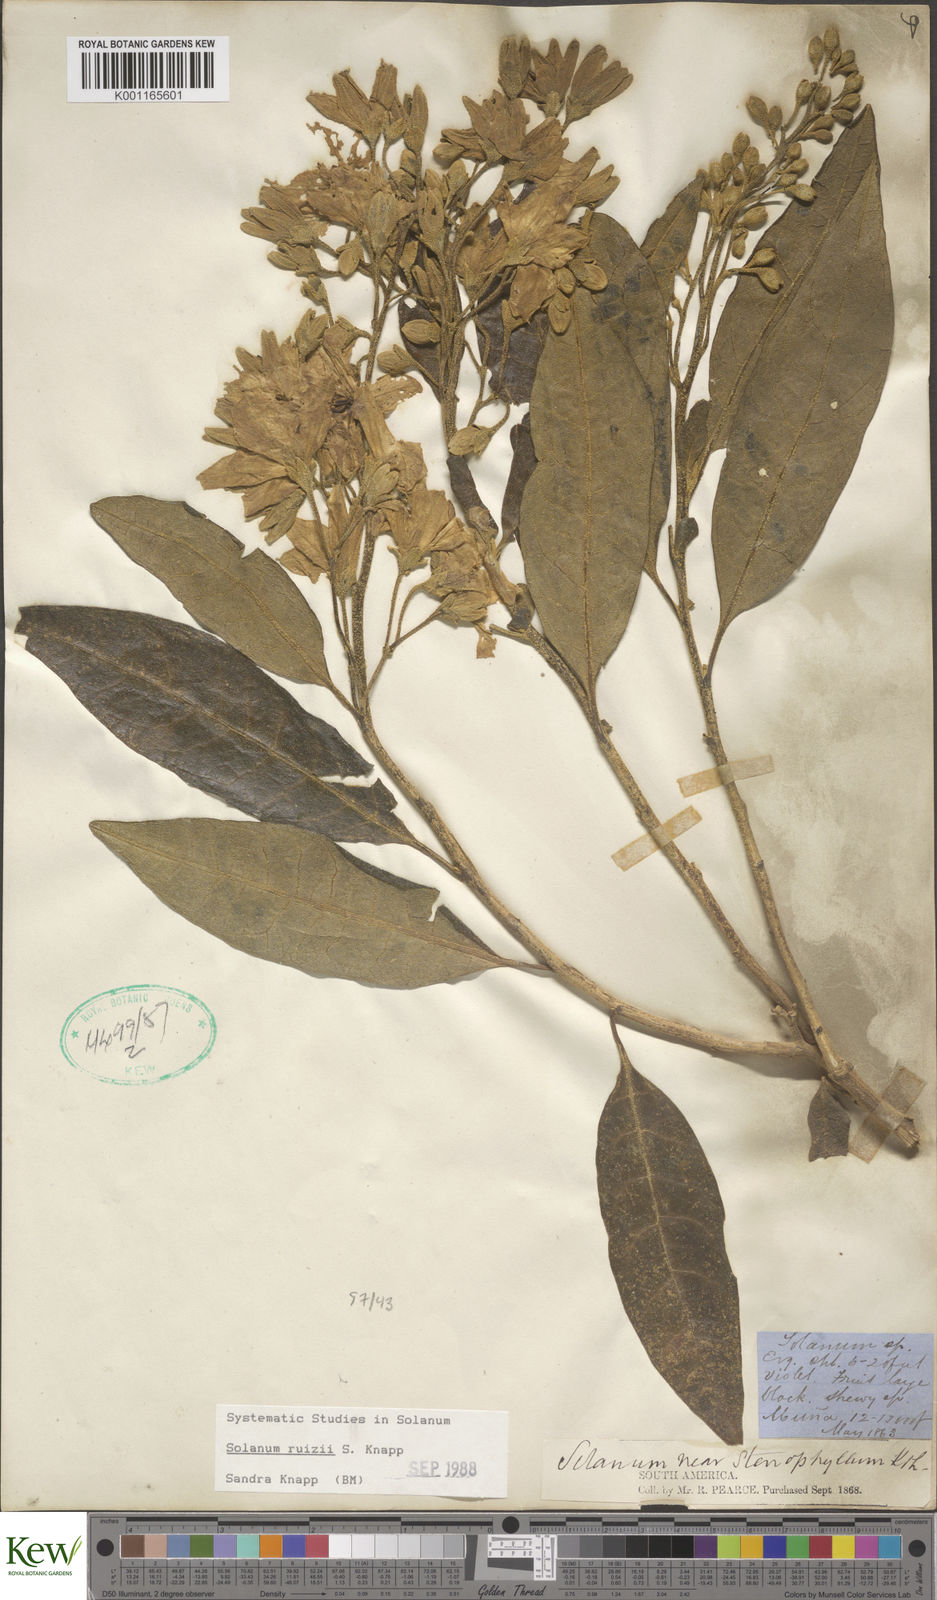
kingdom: Plantae
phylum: Tracheophyta
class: Magnoliopsida
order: Solanales
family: Solanaceae
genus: Solanum
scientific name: Solanum ruizii
